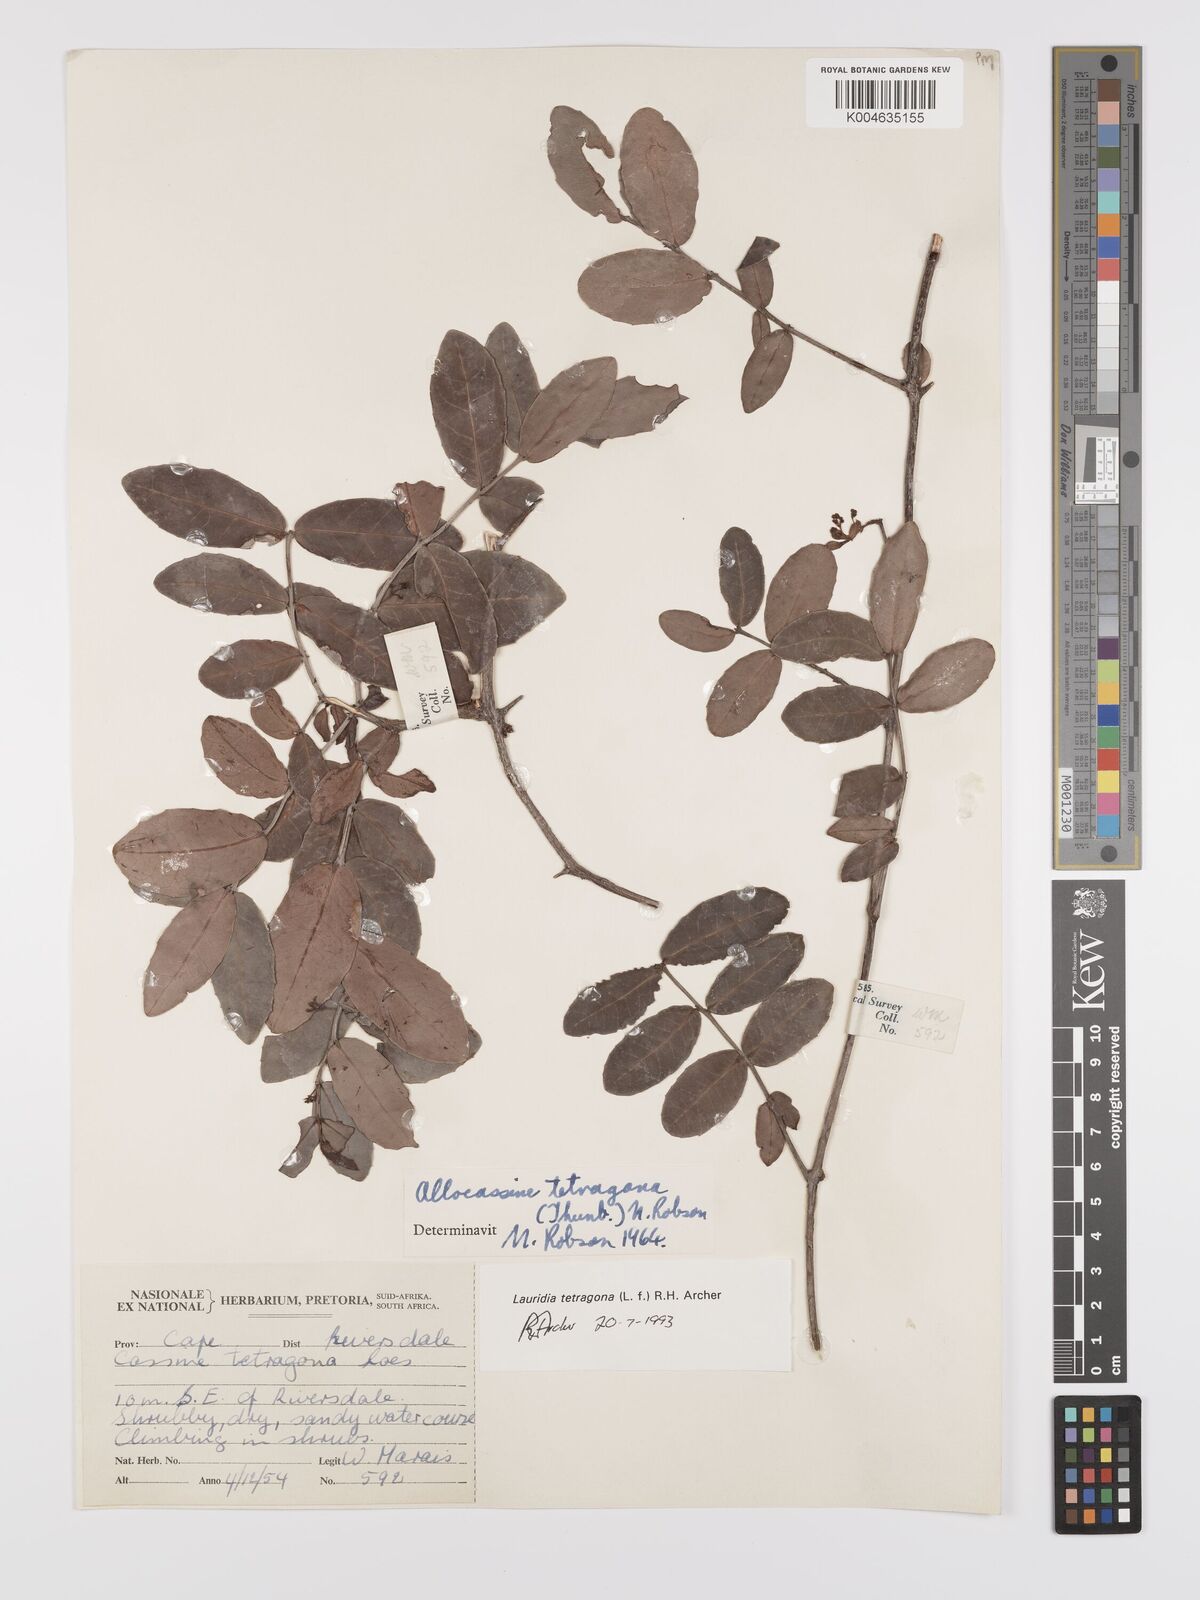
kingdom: Plantae
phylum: Tracheophyta
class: Magnoliopsida
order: Celastrales
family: Celastraceae
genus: Lauridia
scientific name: Lauridia tetragona
